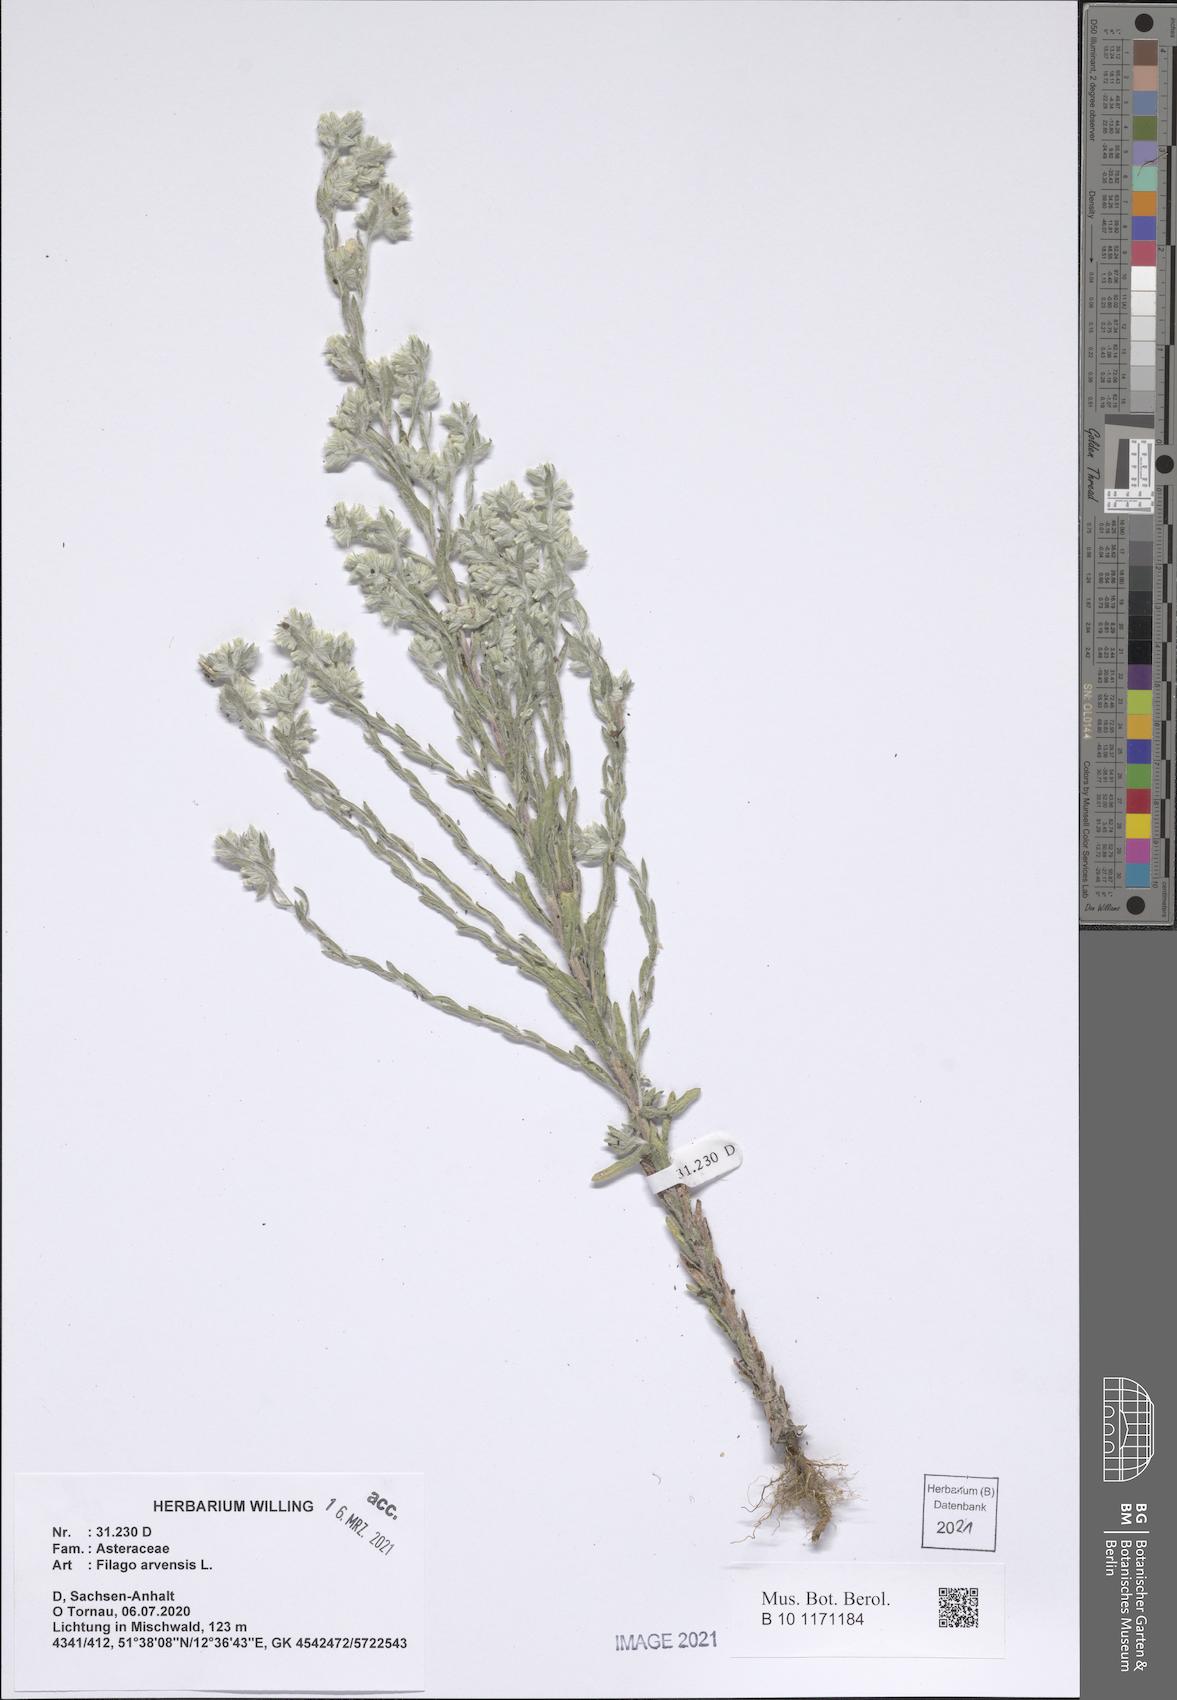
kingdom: Plantae
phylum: Tracheophyta
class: Magnoliopsida
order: Asterales
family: Asteraceae
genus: Filago
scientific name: Filago arvensis
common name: Field cudweed
